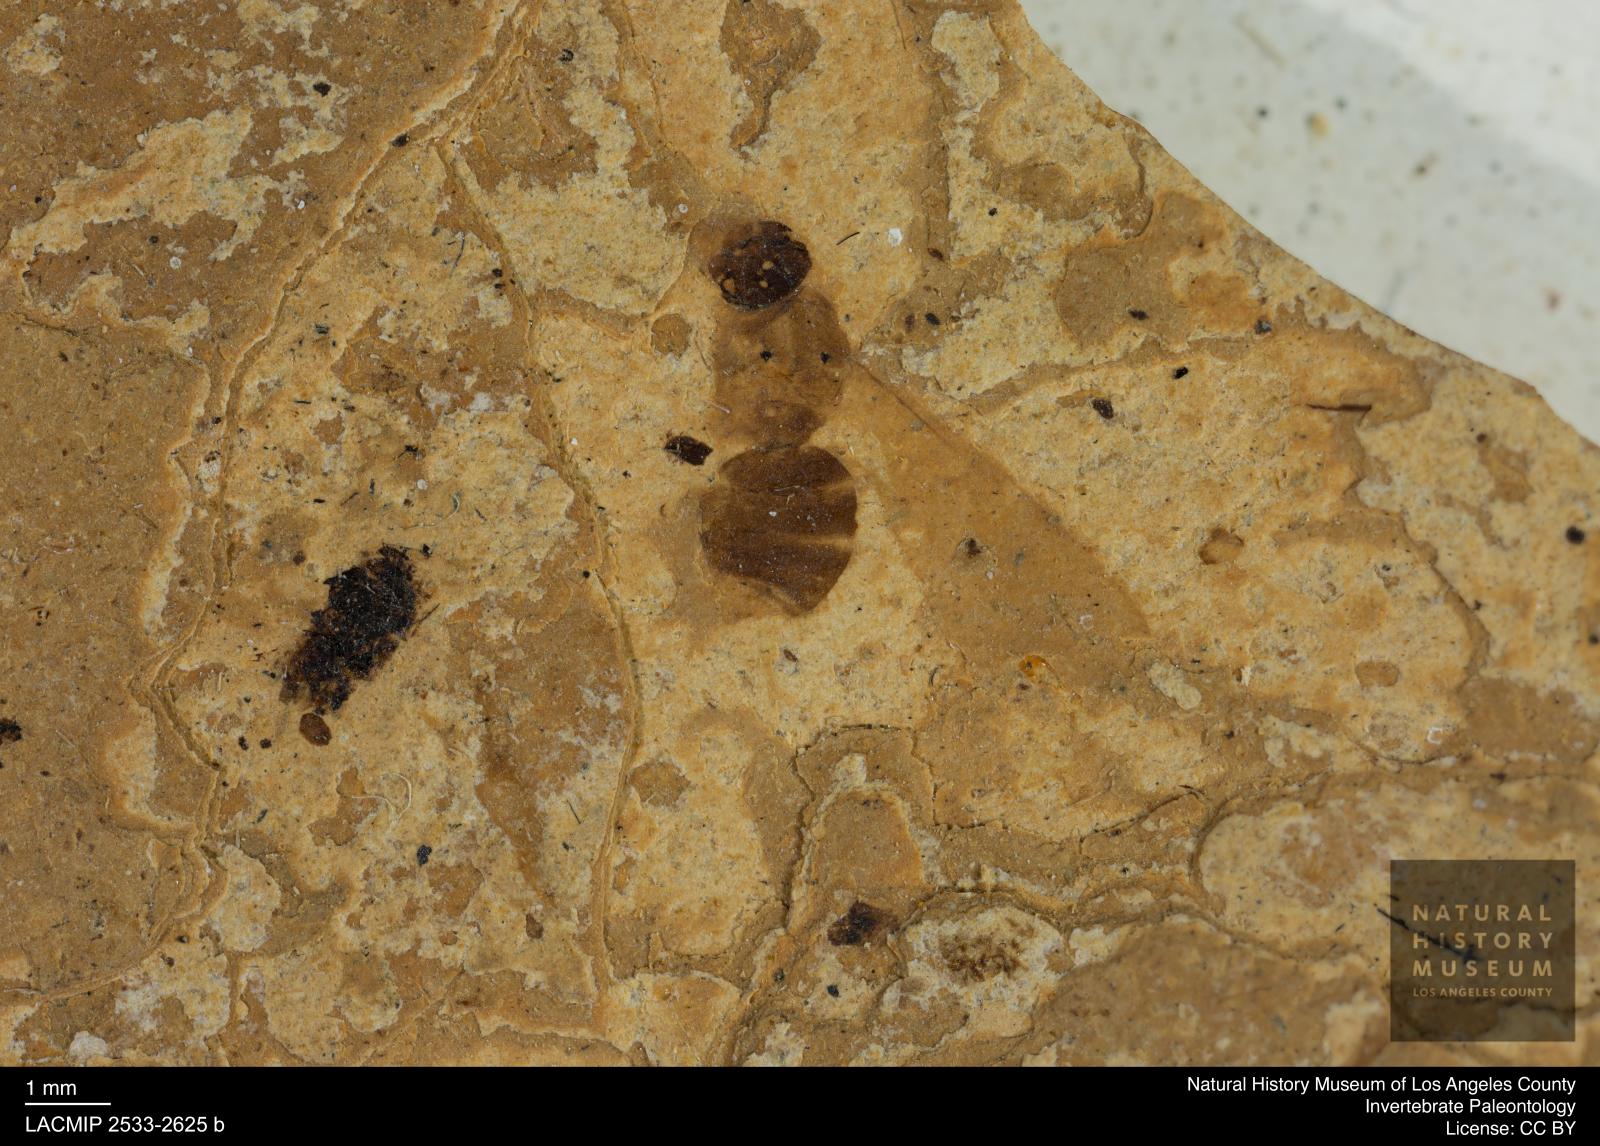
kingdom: Animalia
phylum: Arthropoda
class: Insecta
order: Hymenoptera
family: Formicidae
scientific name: Formicidae
